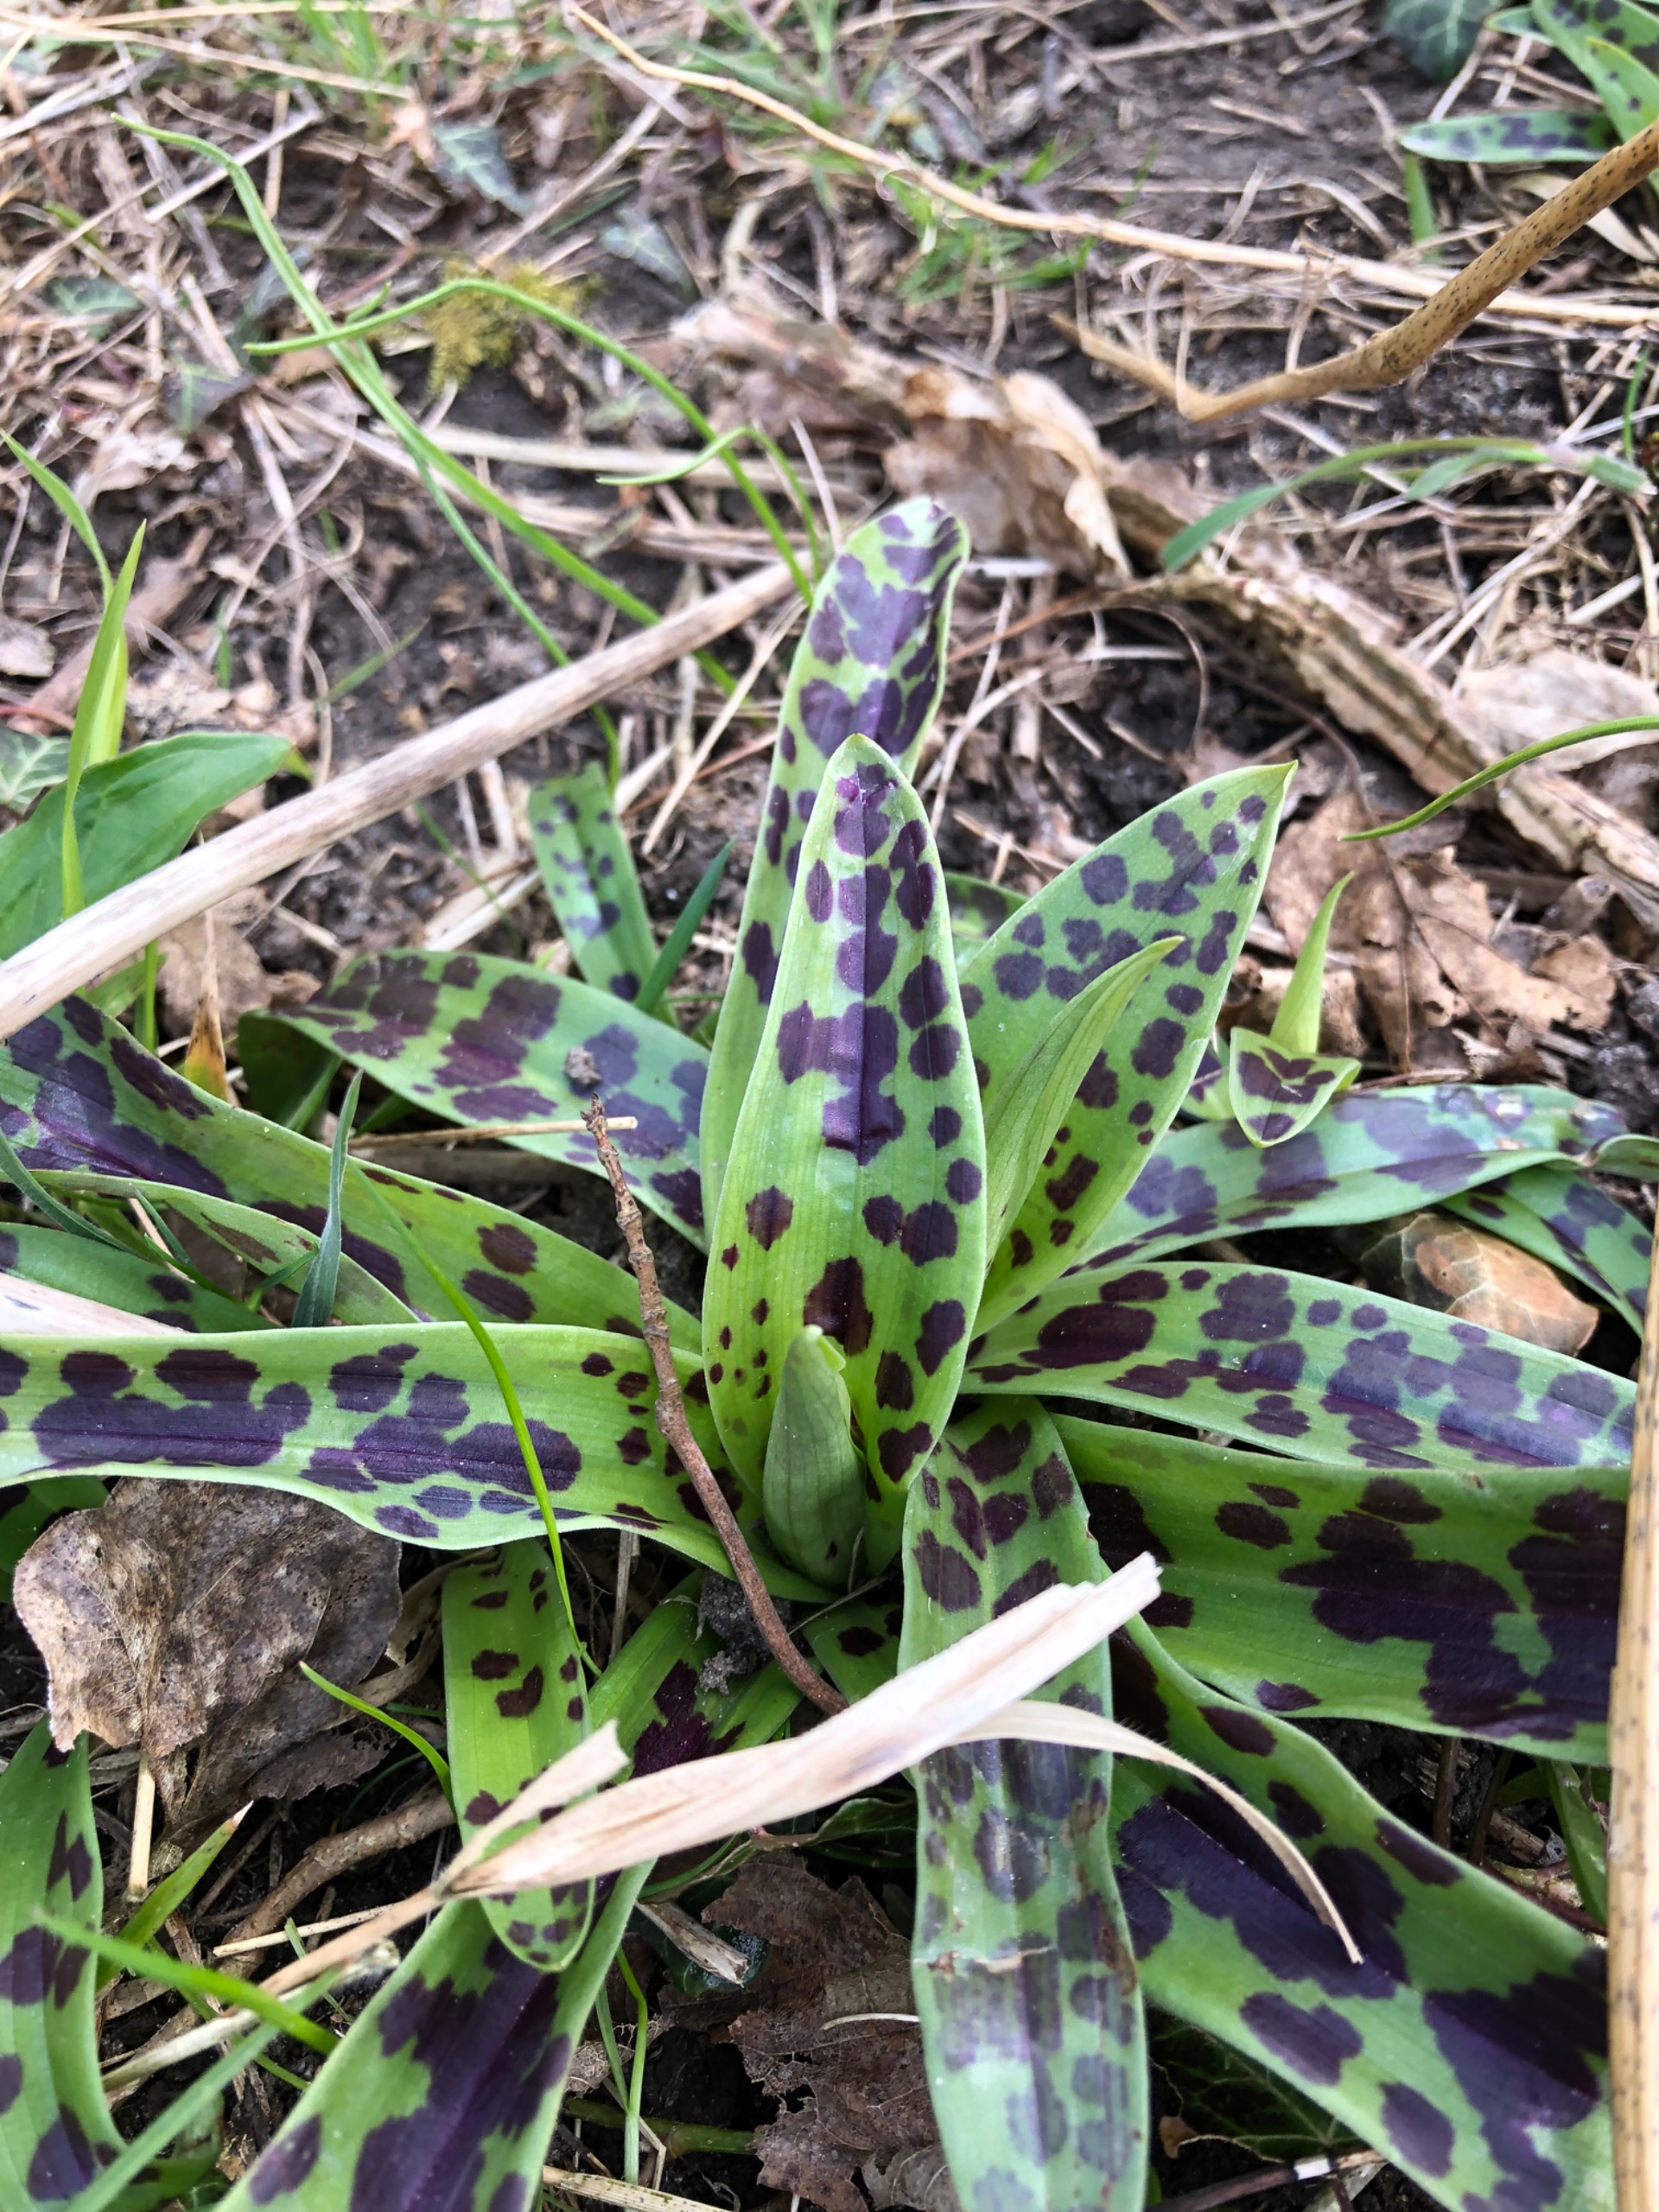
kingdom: Plantae
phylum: Tracheophyta
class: Liliopsida
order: Asparagales
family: Orchidaceae
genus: Orchis
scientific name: Orchis mascula
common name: Tyndakset gøgeurt
